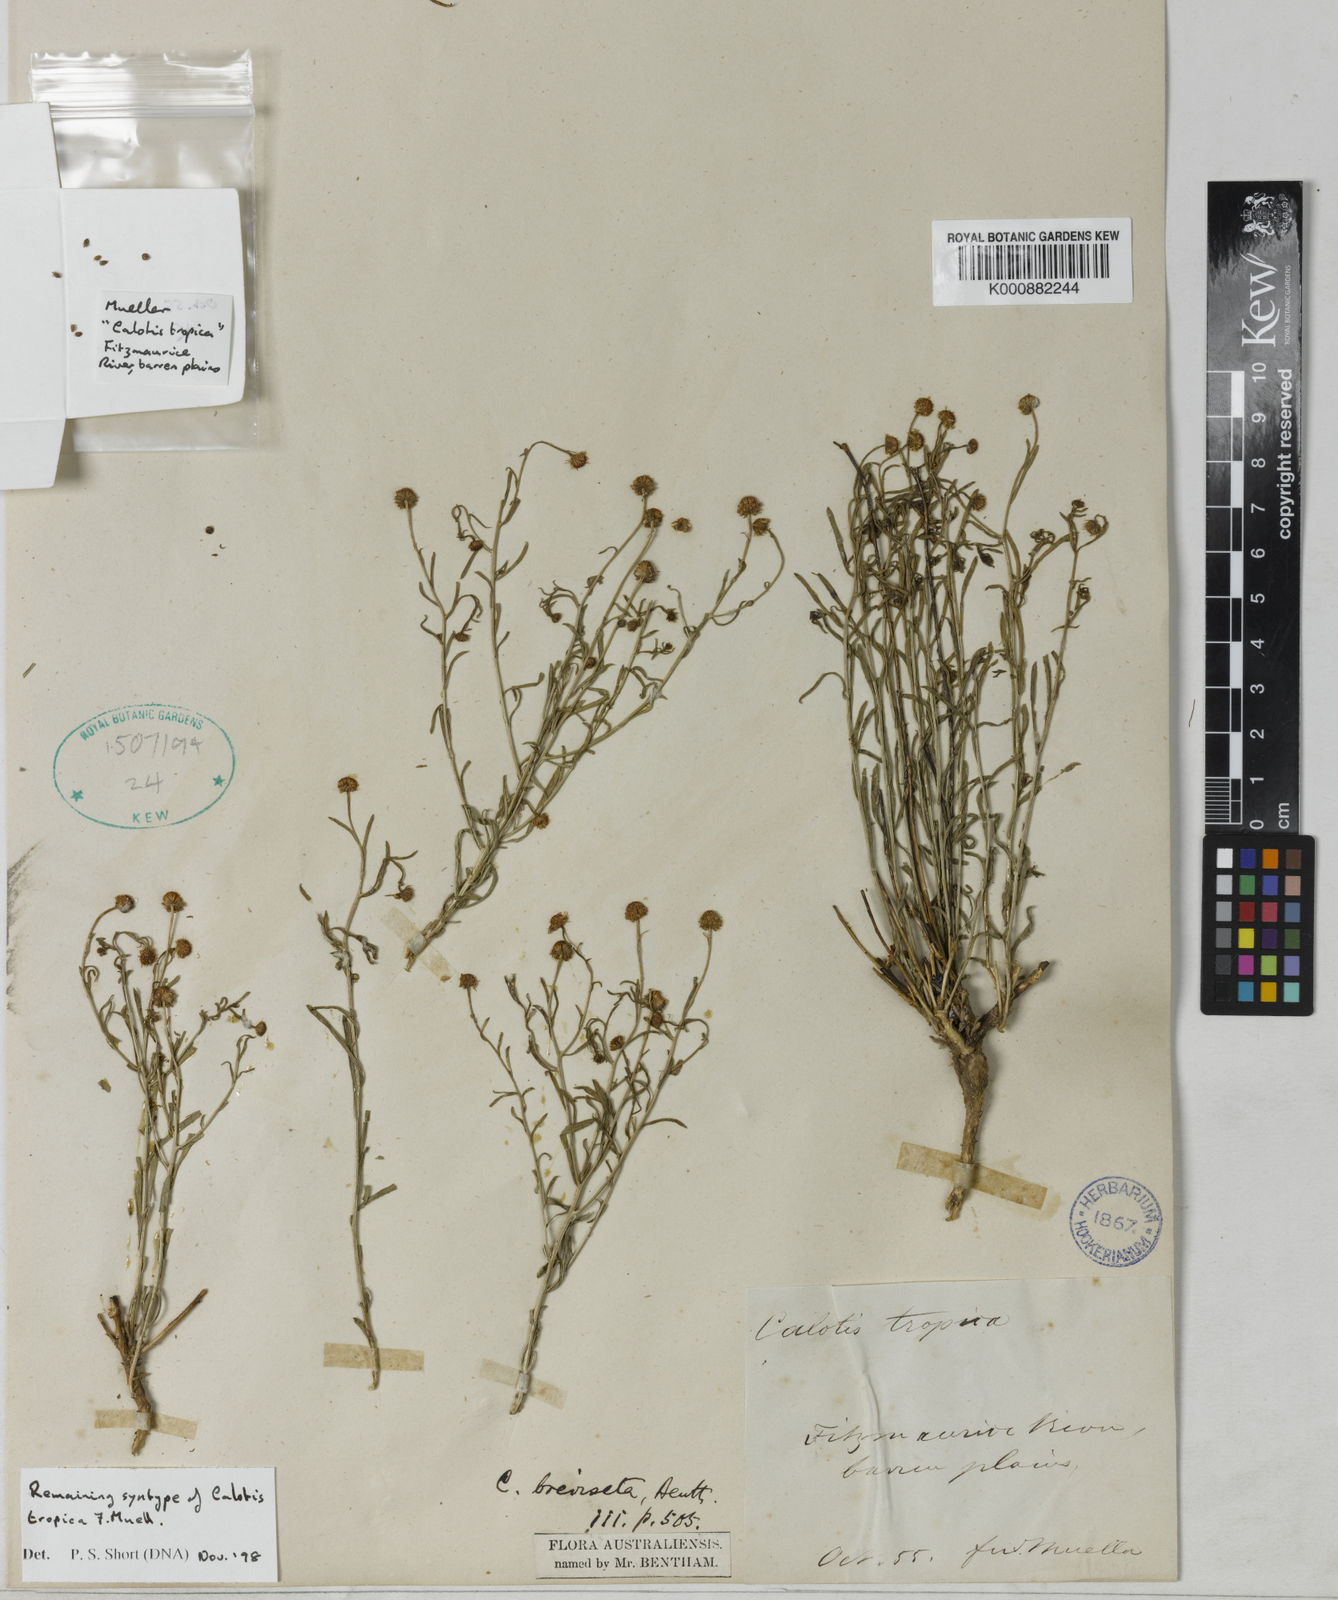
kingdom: Plantae
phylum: Tracheophyta
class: Magnoliopsida
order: Asterales
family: Asteraceae
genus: Calotis
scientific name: Calotis breviseta
